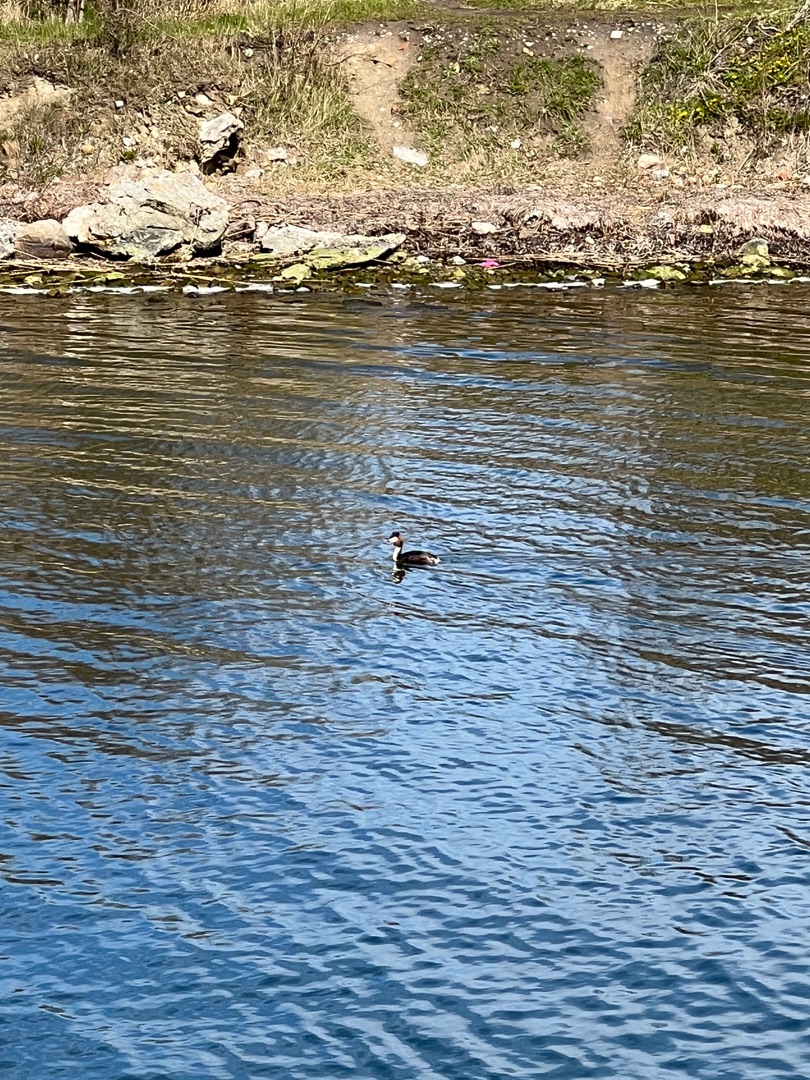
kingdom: Animalia
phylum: Chordata
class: Aves
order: Podicipediformes
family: Podicipedidae
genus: Podiceps
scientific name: Podiceps cristatus
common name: Toppet lappedykker
